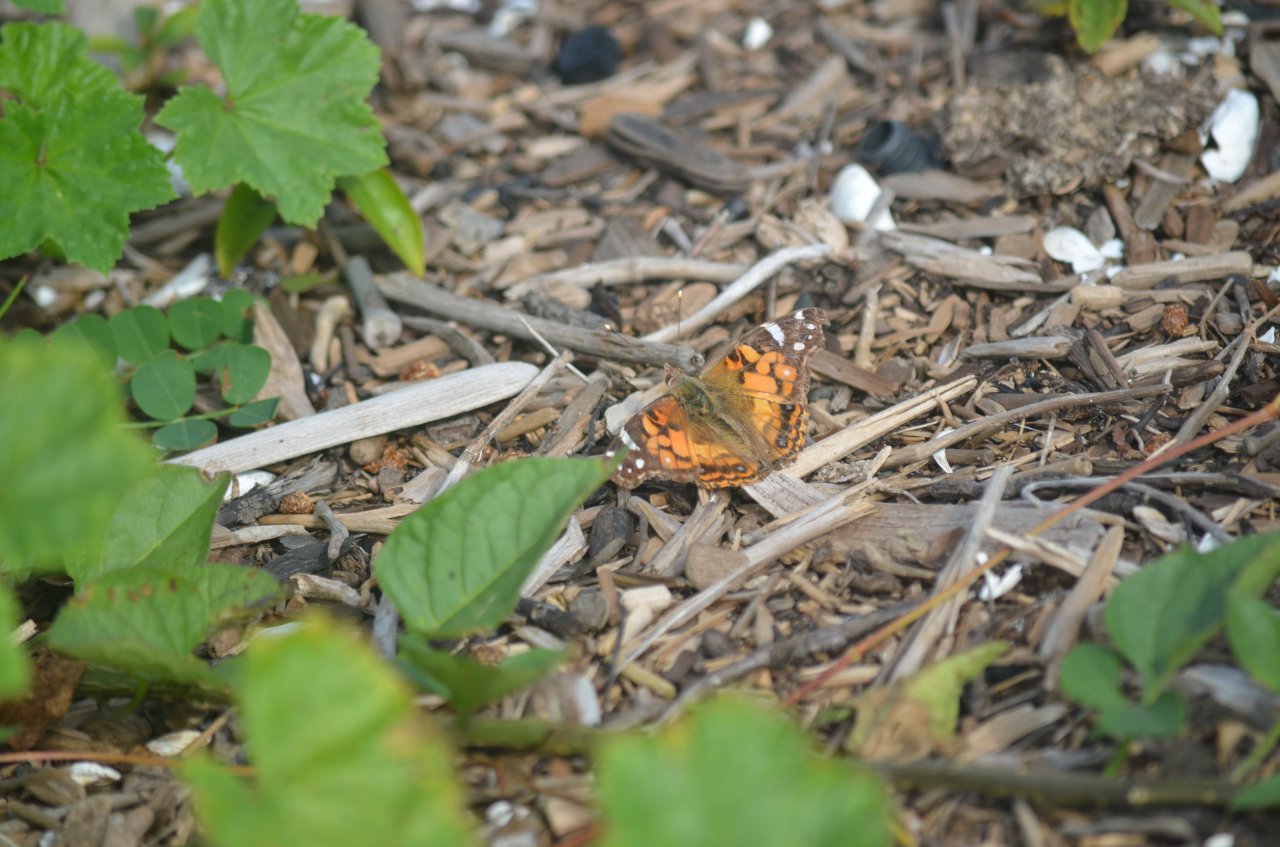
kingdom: Animalia
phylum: Arthropoda
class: Insecta
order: Lepidoptera
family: Nymphalidae
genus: Vanessa
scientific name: Vanessa virginiensis
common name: American Lady
